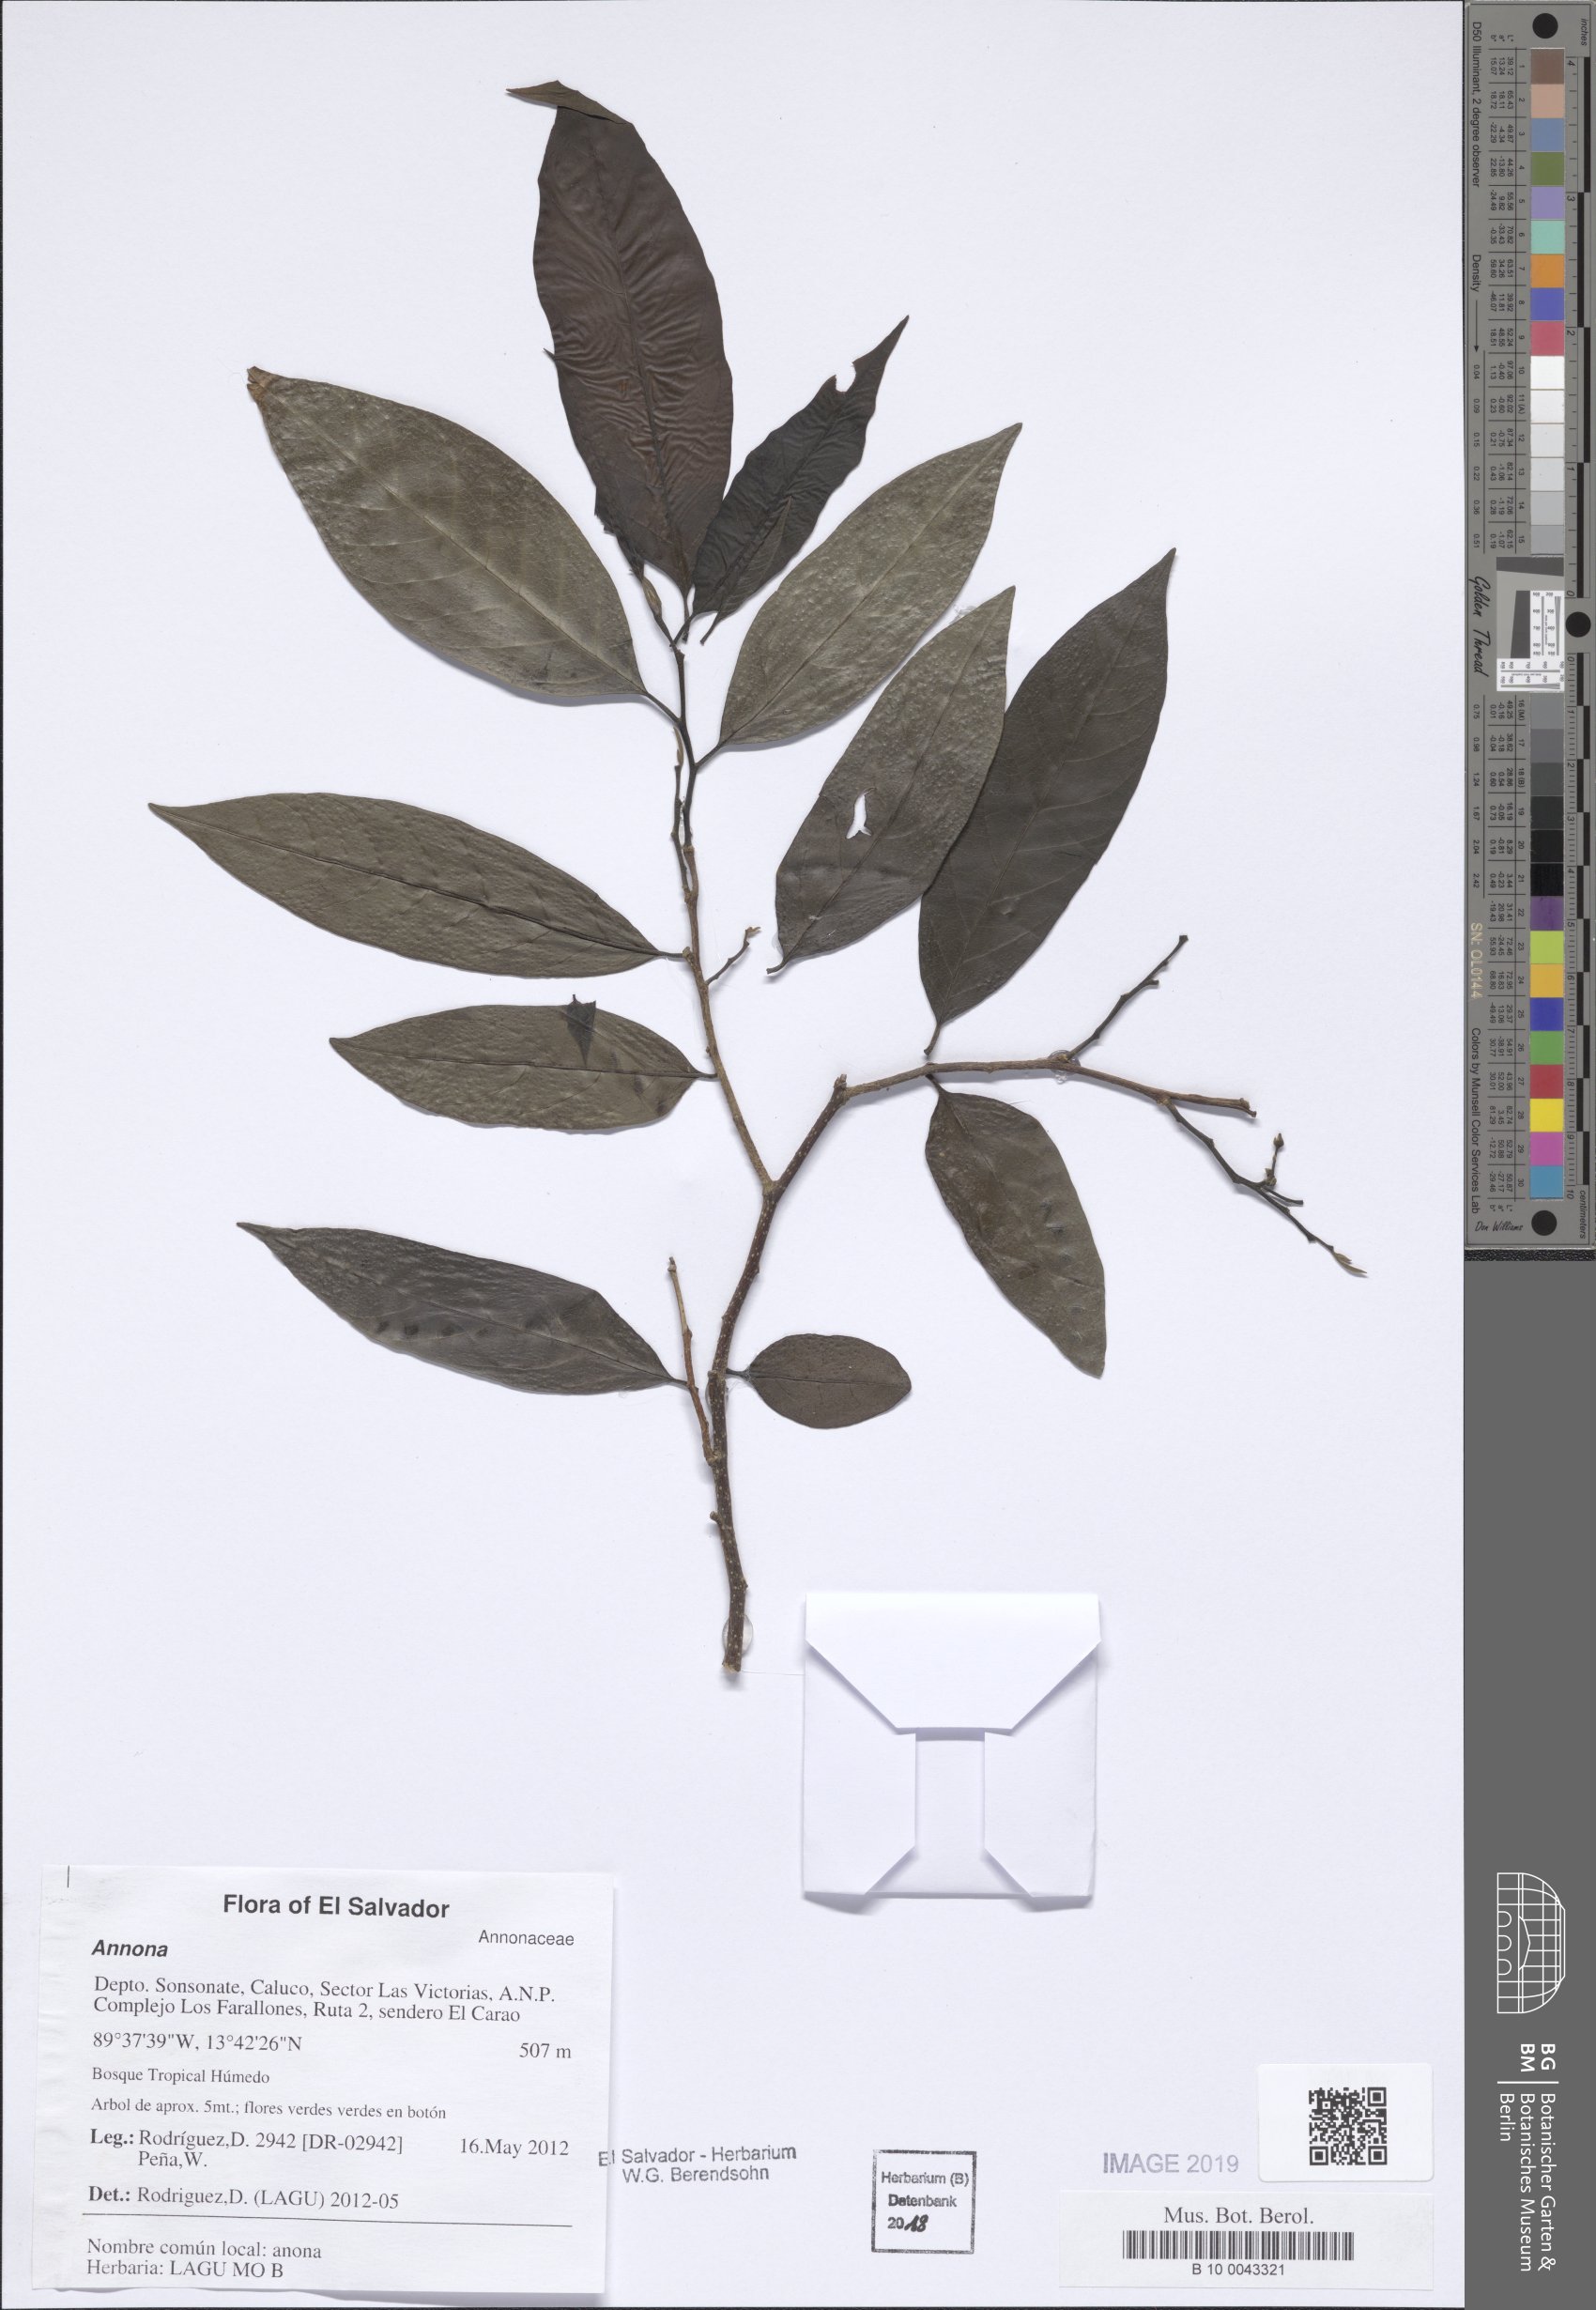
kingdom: Plantae
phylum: Tracheophyta
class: Magnoliopsida
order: Magnoliales
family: Annonaceae
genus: Annona
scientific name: Annona
